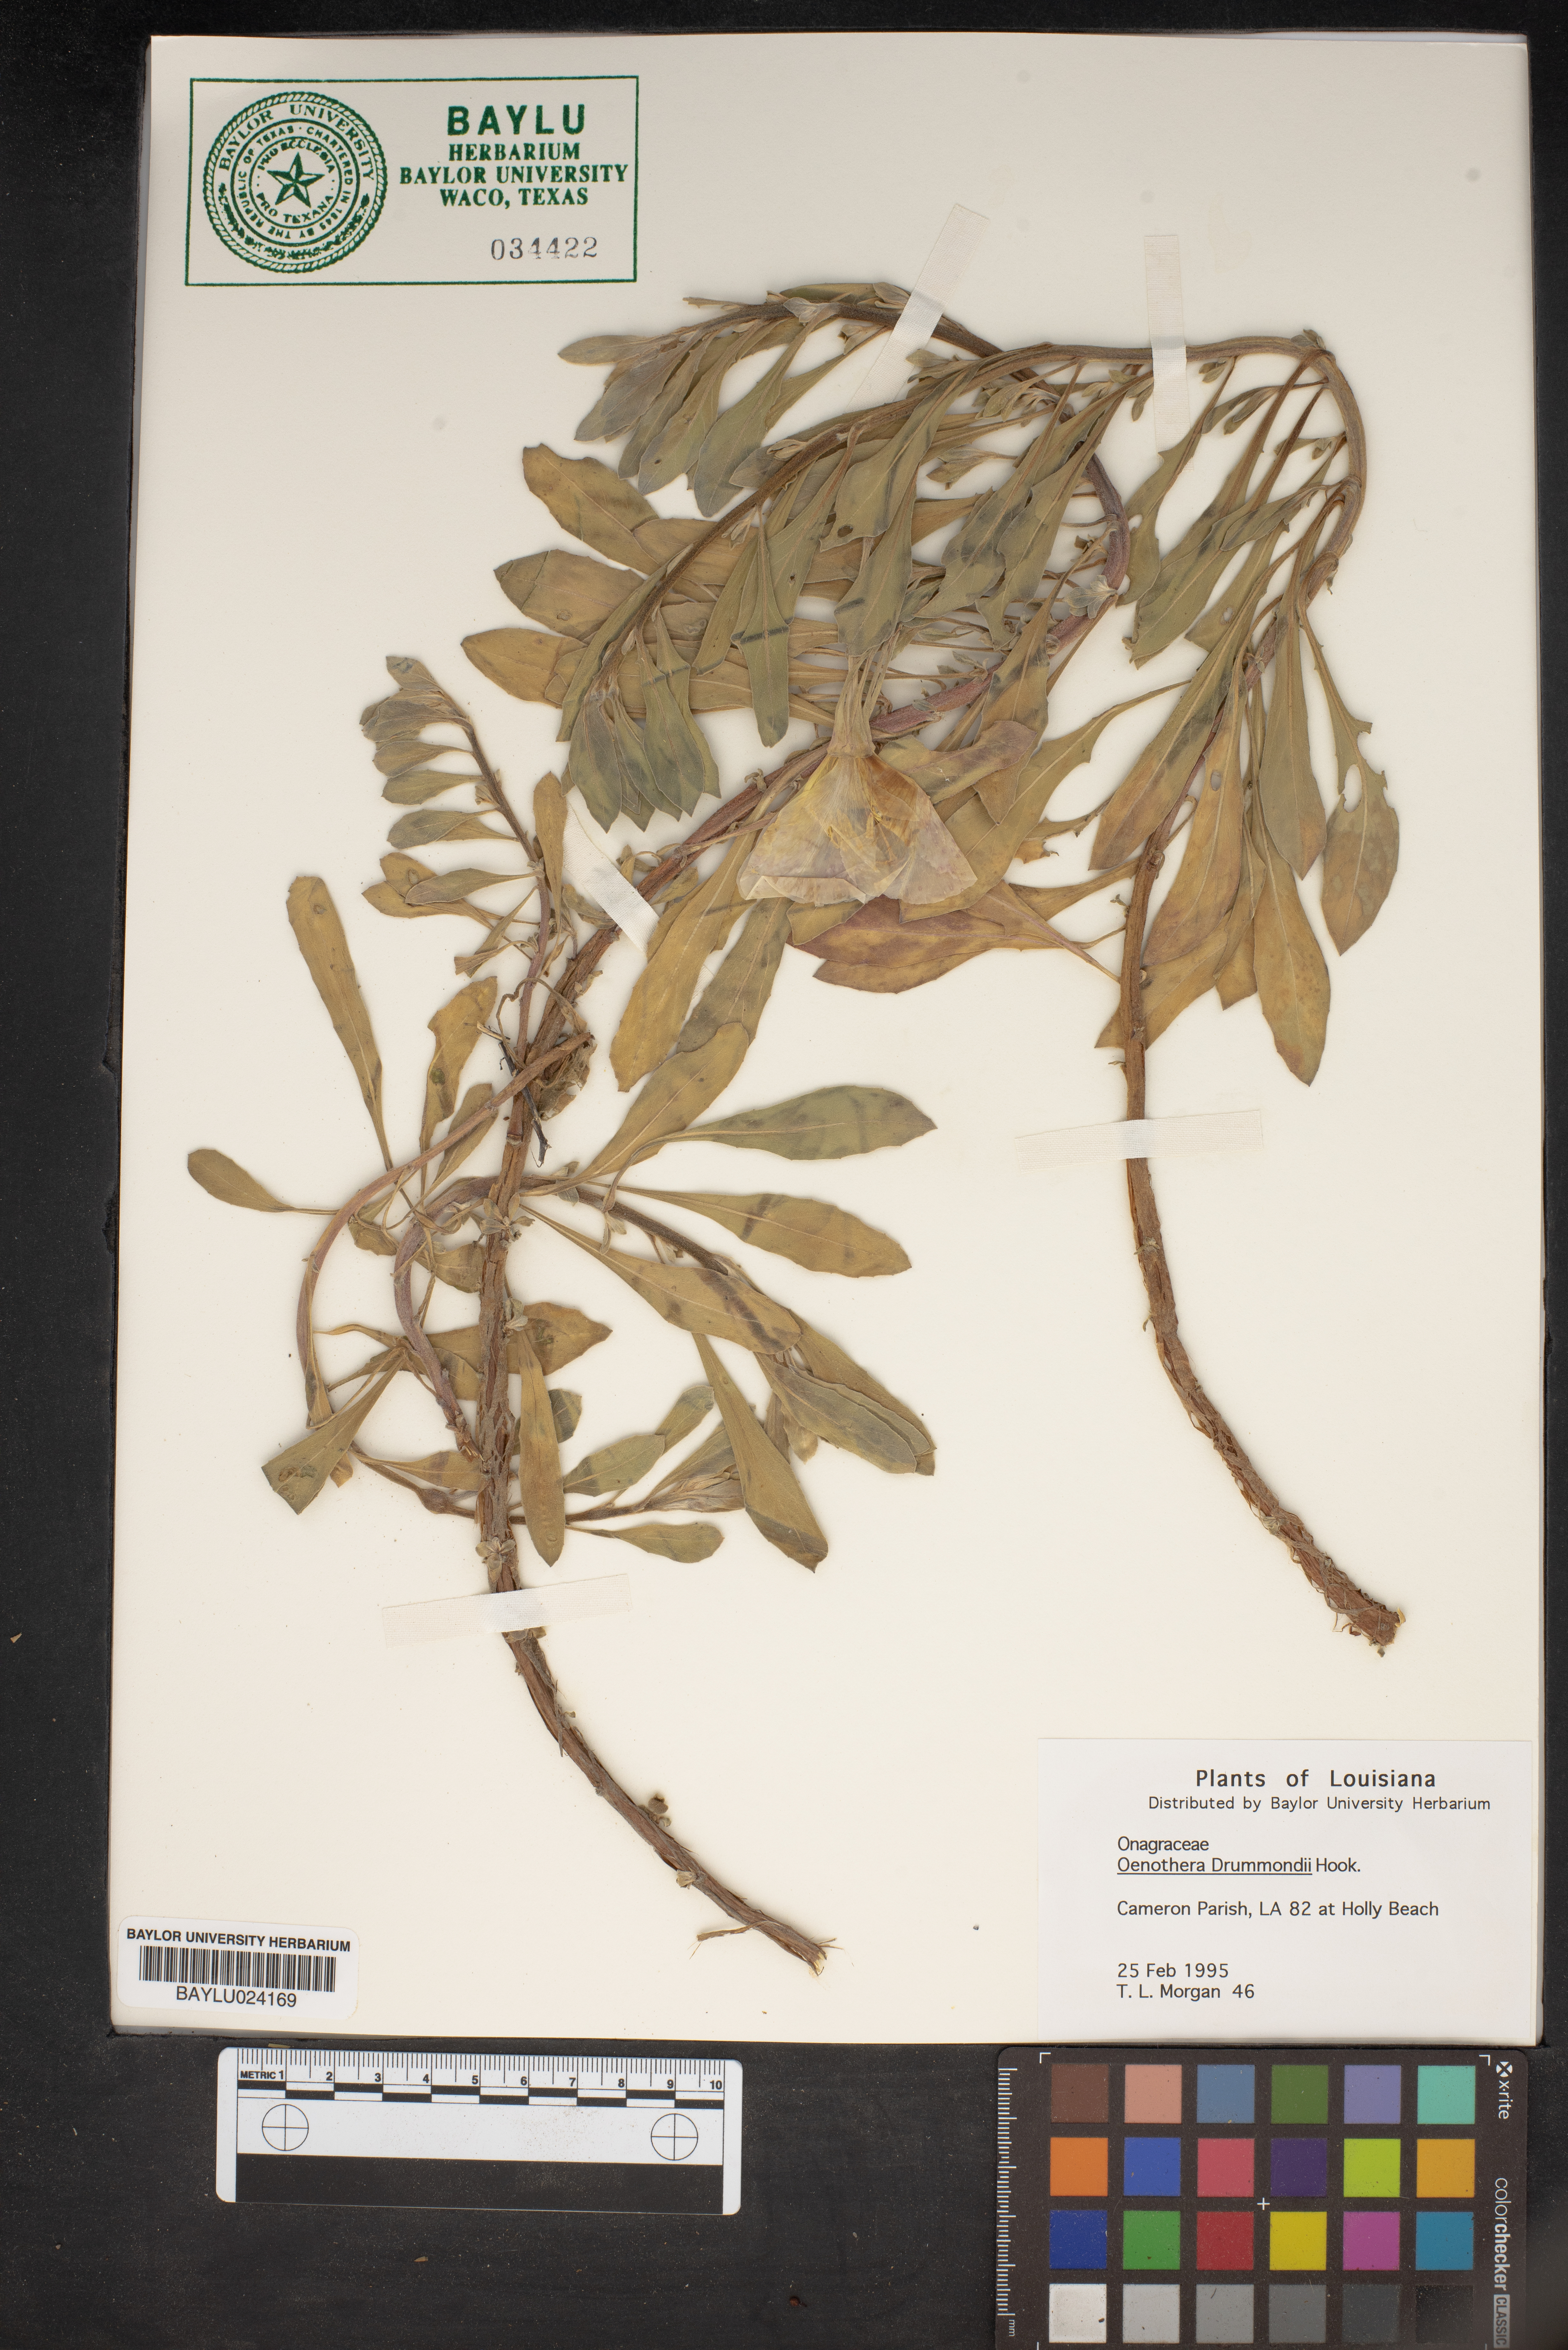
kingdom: Plantae
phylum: Tracheophyta
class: Magnoliopsida
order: Myrtales
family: Onagraceae
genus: Oenothera
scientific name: Oenothera drummondii
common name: Beach evening-primrose
